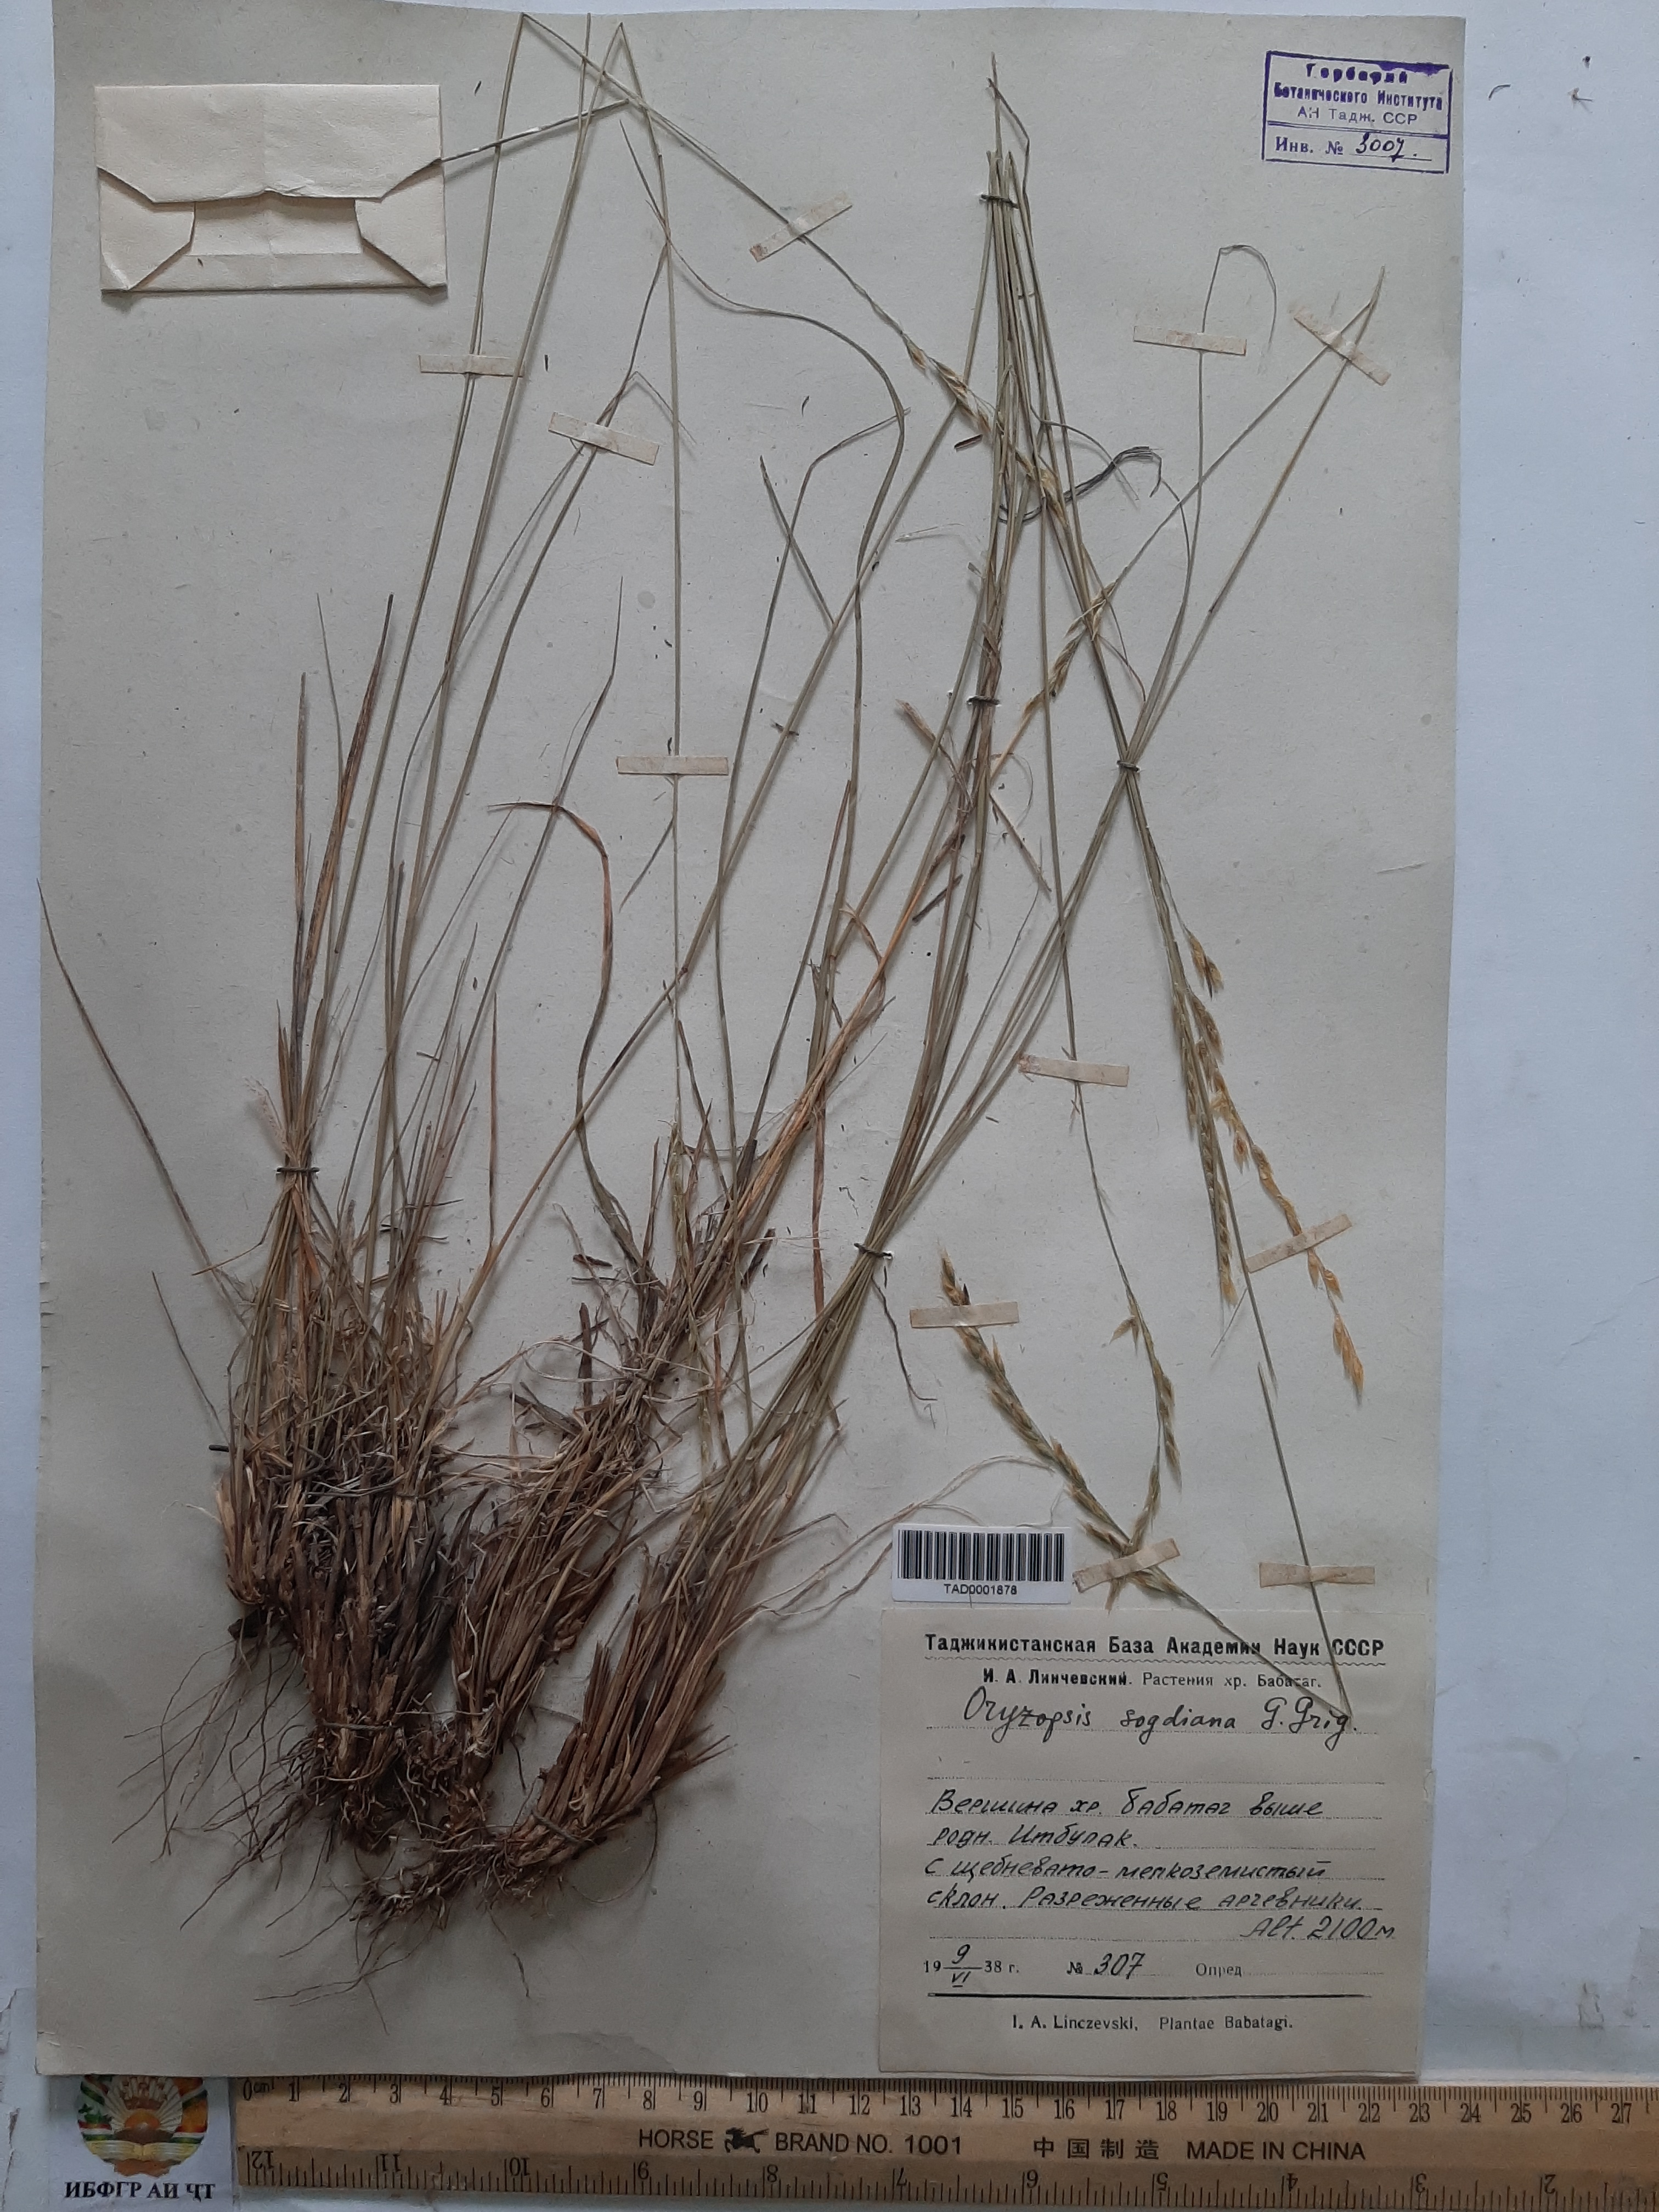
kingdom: Plantae
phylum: Tracheophyta
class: Liliopsida
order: Poales
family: Poaceae
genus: Piptatherum
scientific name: Piptatherum sogdianum
